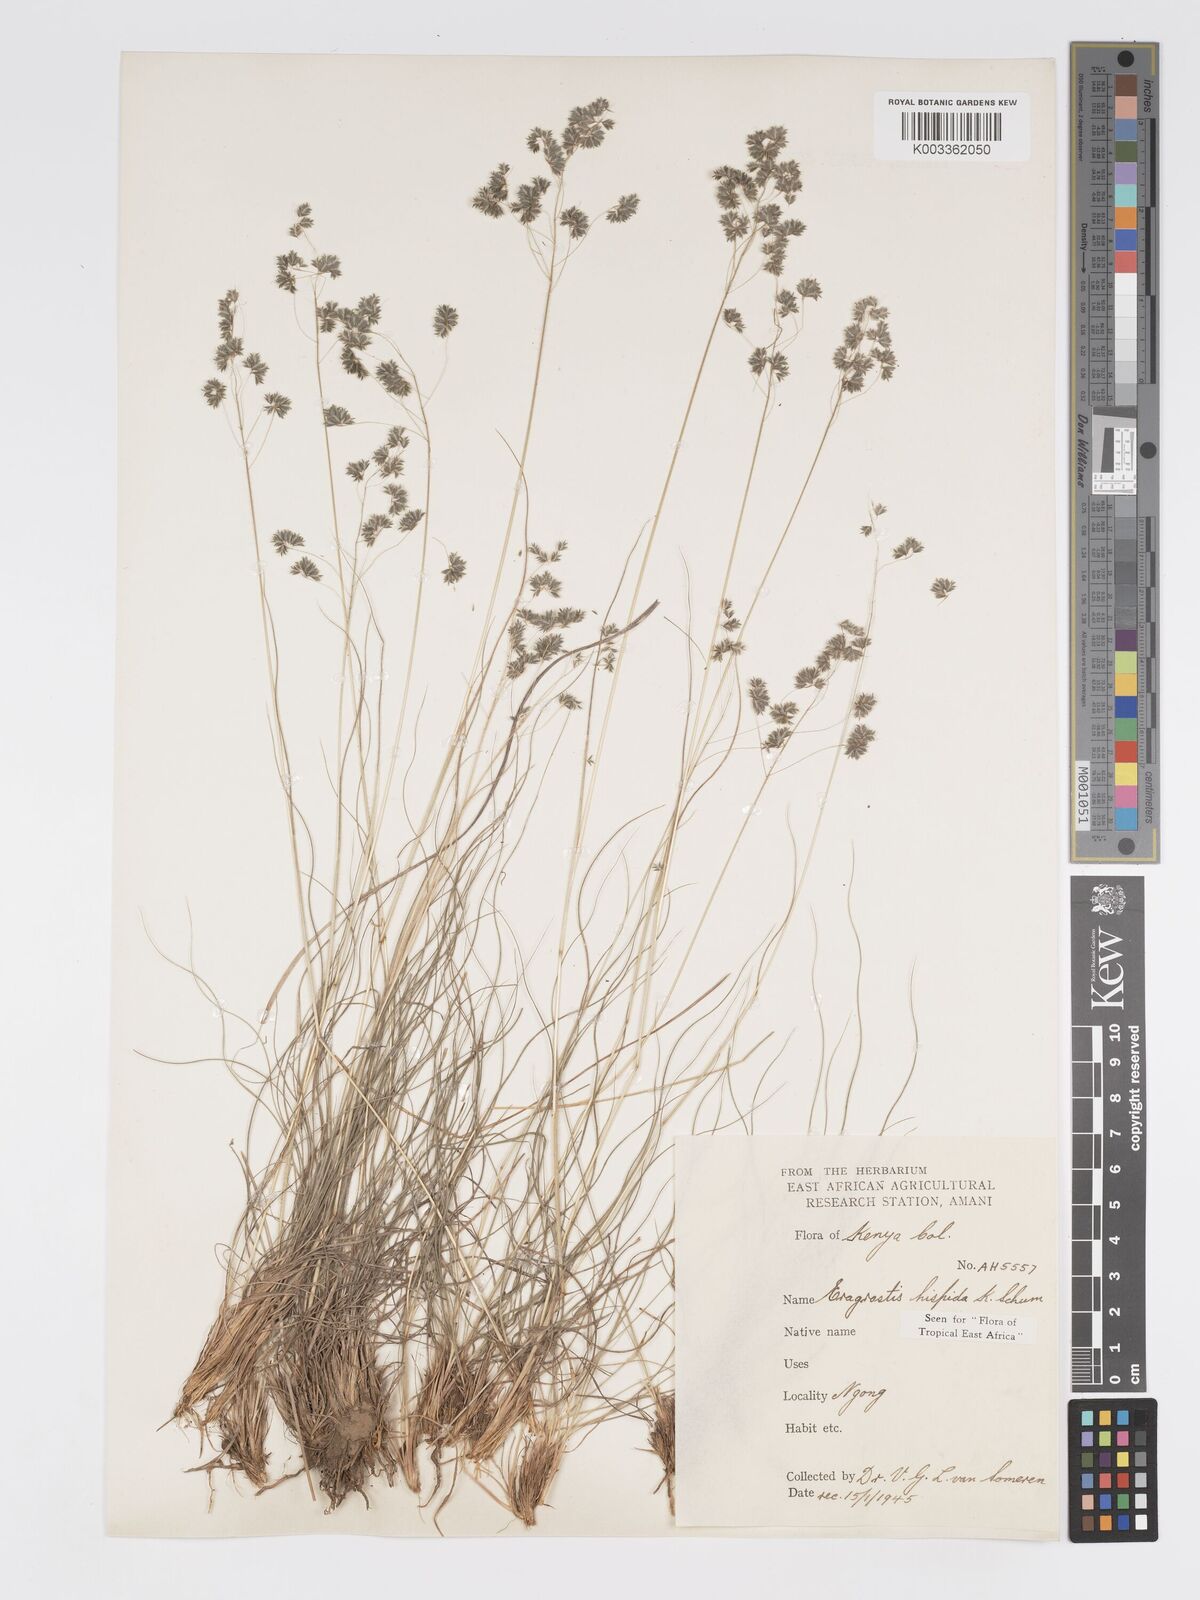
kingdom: Plantae
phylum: Tracheophyta
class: Liliopsida
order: Poales
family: Poaceae
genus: Eragrostis
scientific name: Eragrostis hispida
